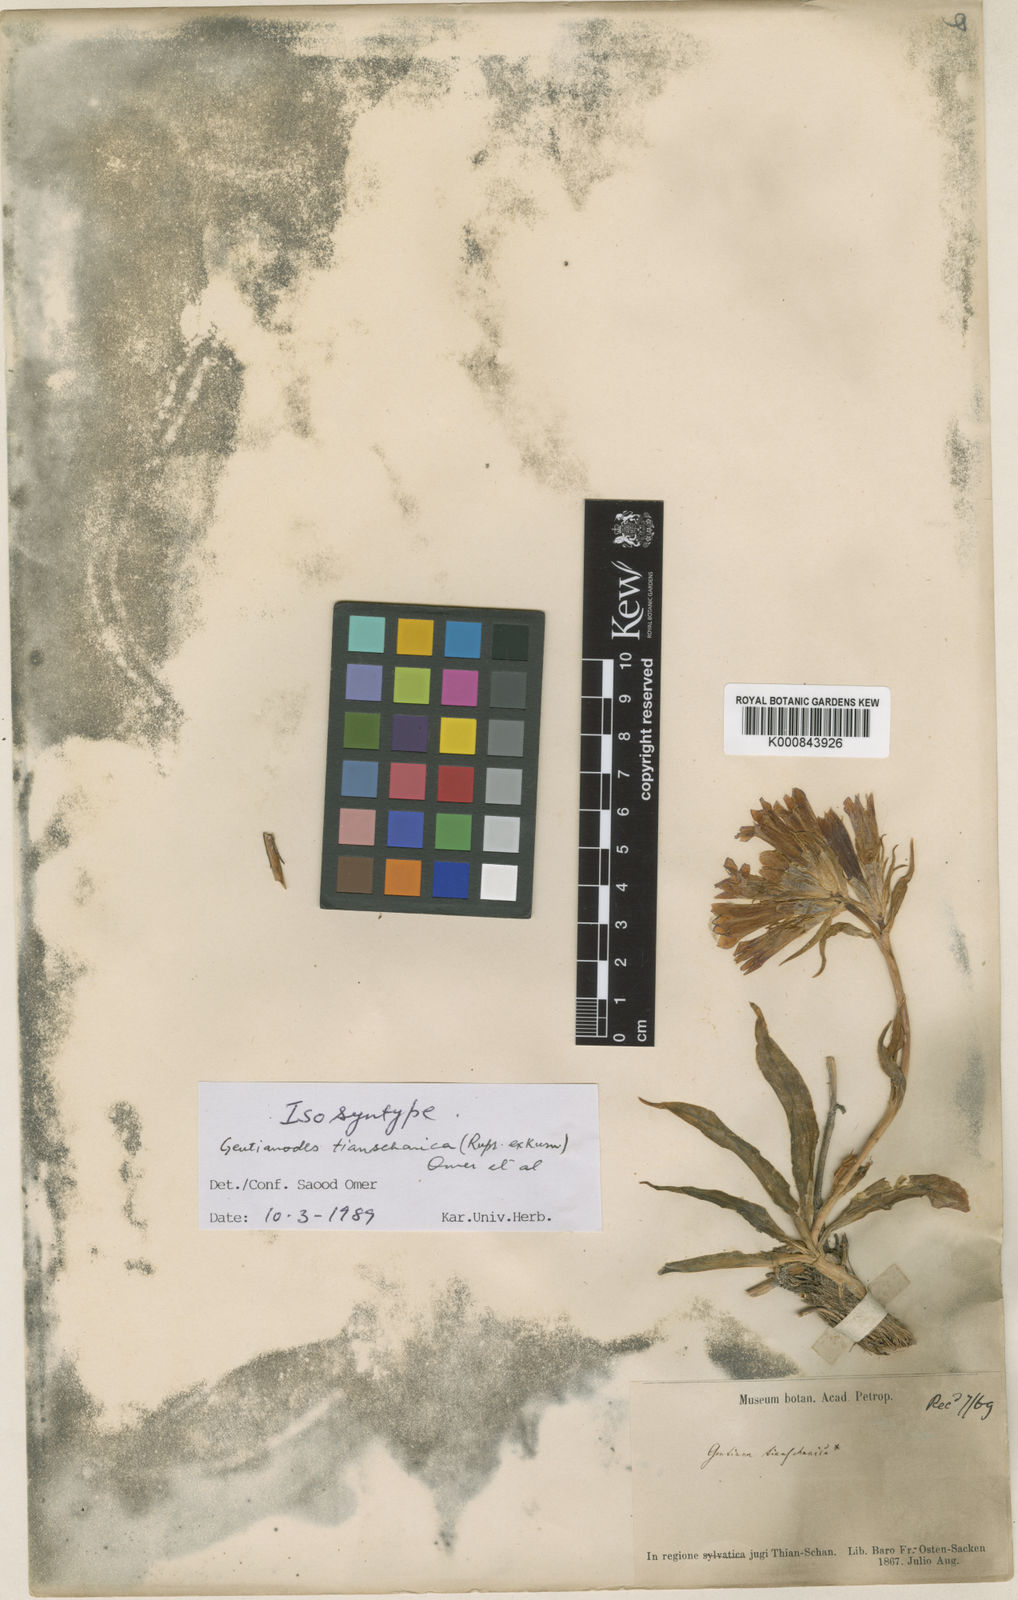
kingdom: Plantae
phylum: Tracheophyta
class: Magnoliopsida
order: Gentianales
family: Gentianaceae
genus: Gentiana
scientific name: Gentiana
